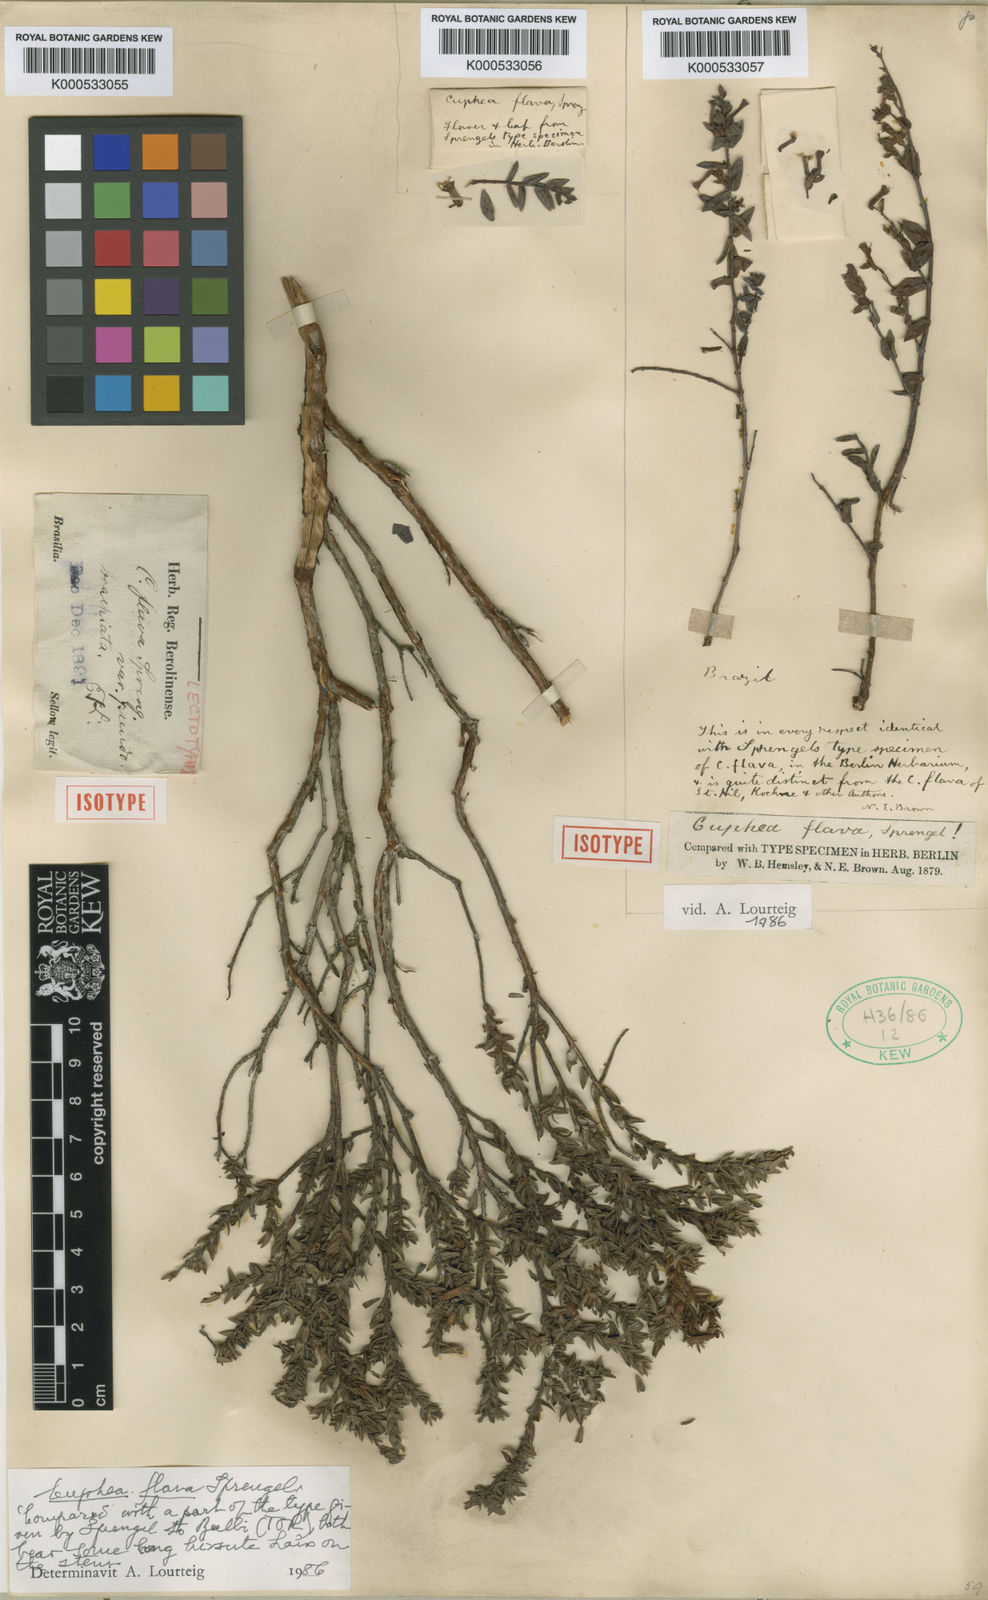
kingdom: Plantae
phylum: Tracheophyta
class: Magnoliopsida
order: Myrtales
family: Lythraceae
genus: Cuphea
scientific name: Cuphea flava
